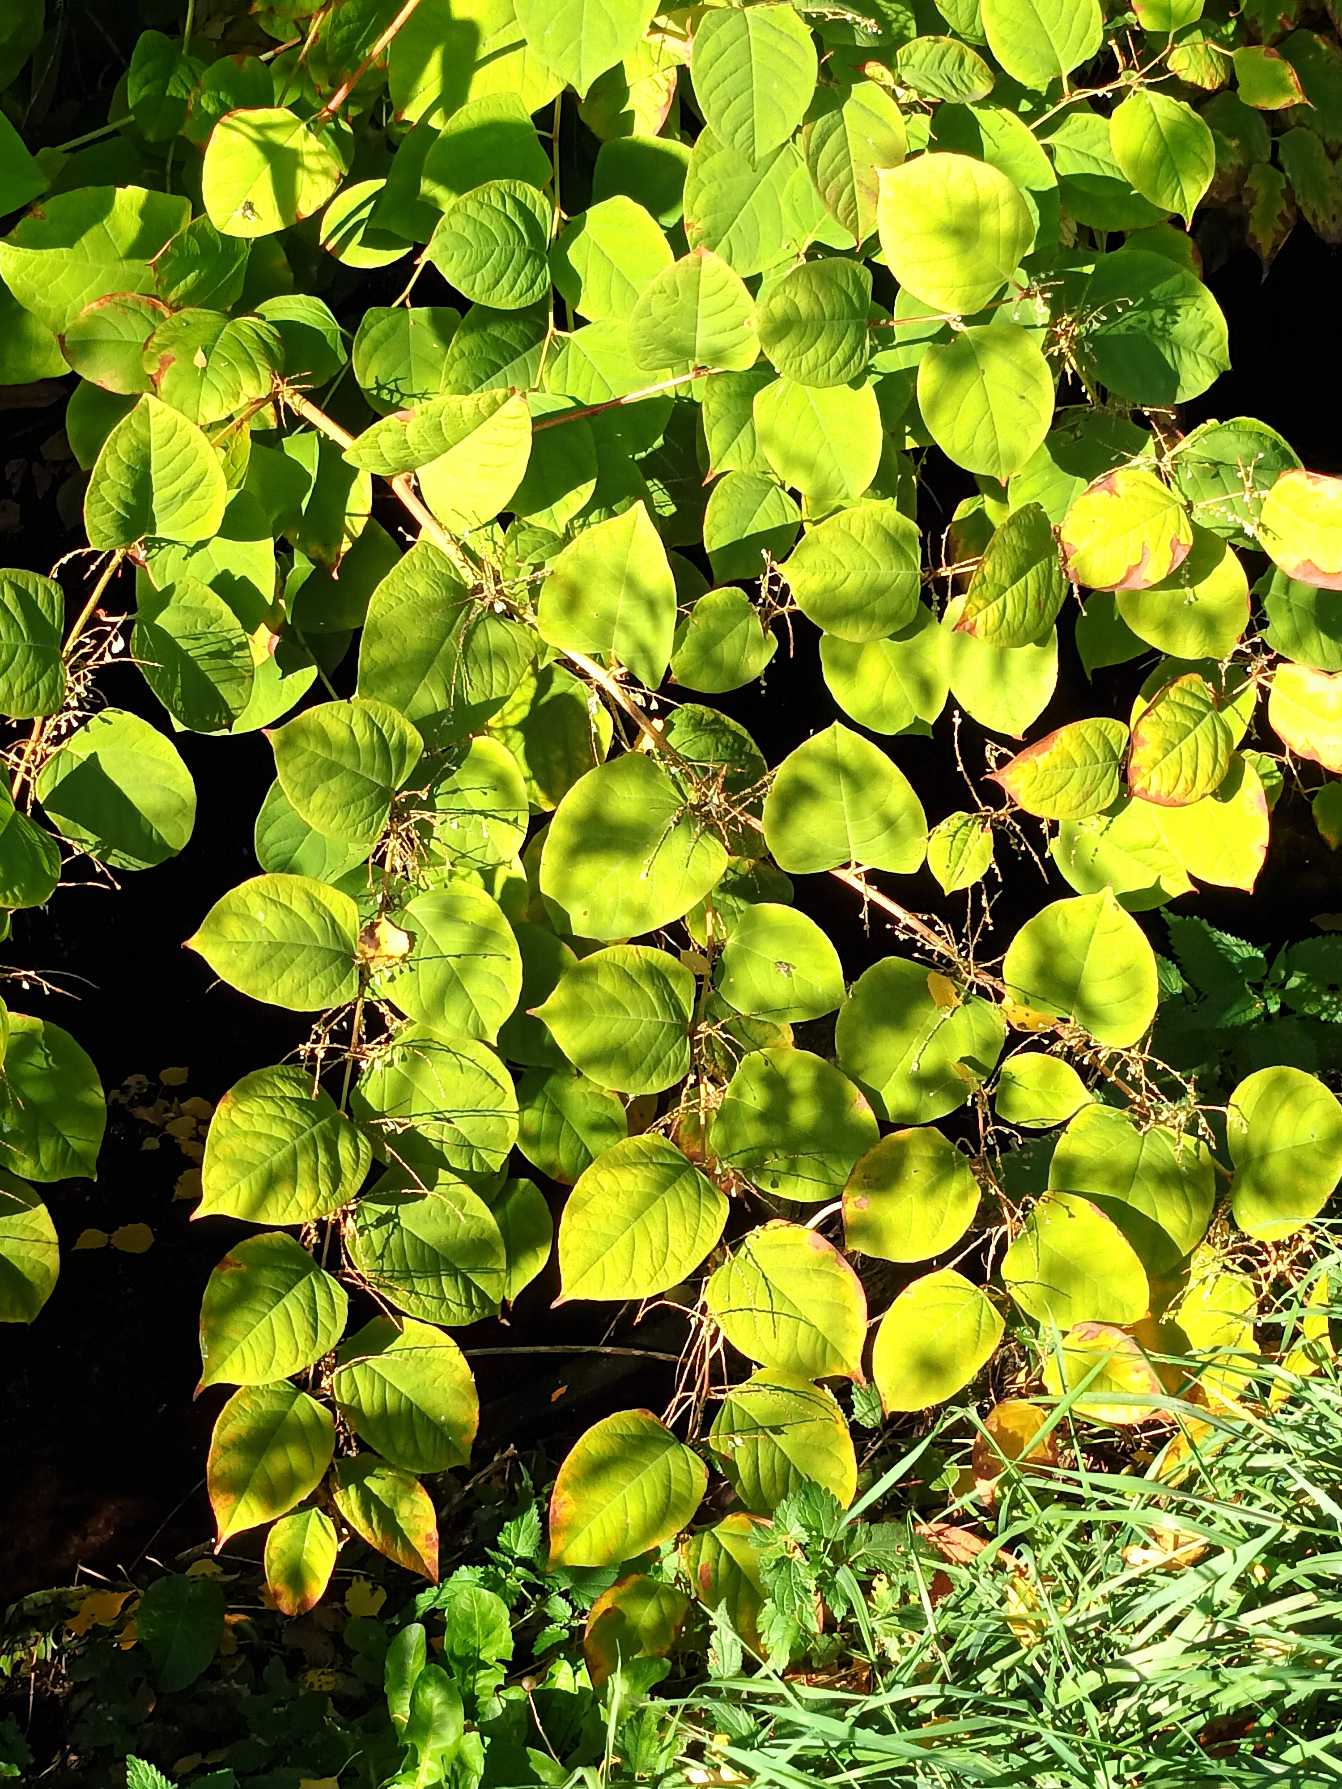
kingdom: Plantae
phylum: Tracheophyta
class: Magnoliopsida
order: Caryophyllales
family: Polygonaceae
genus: Reynoutria
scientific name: Reynoutria japonica
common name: Japan-pileurt
